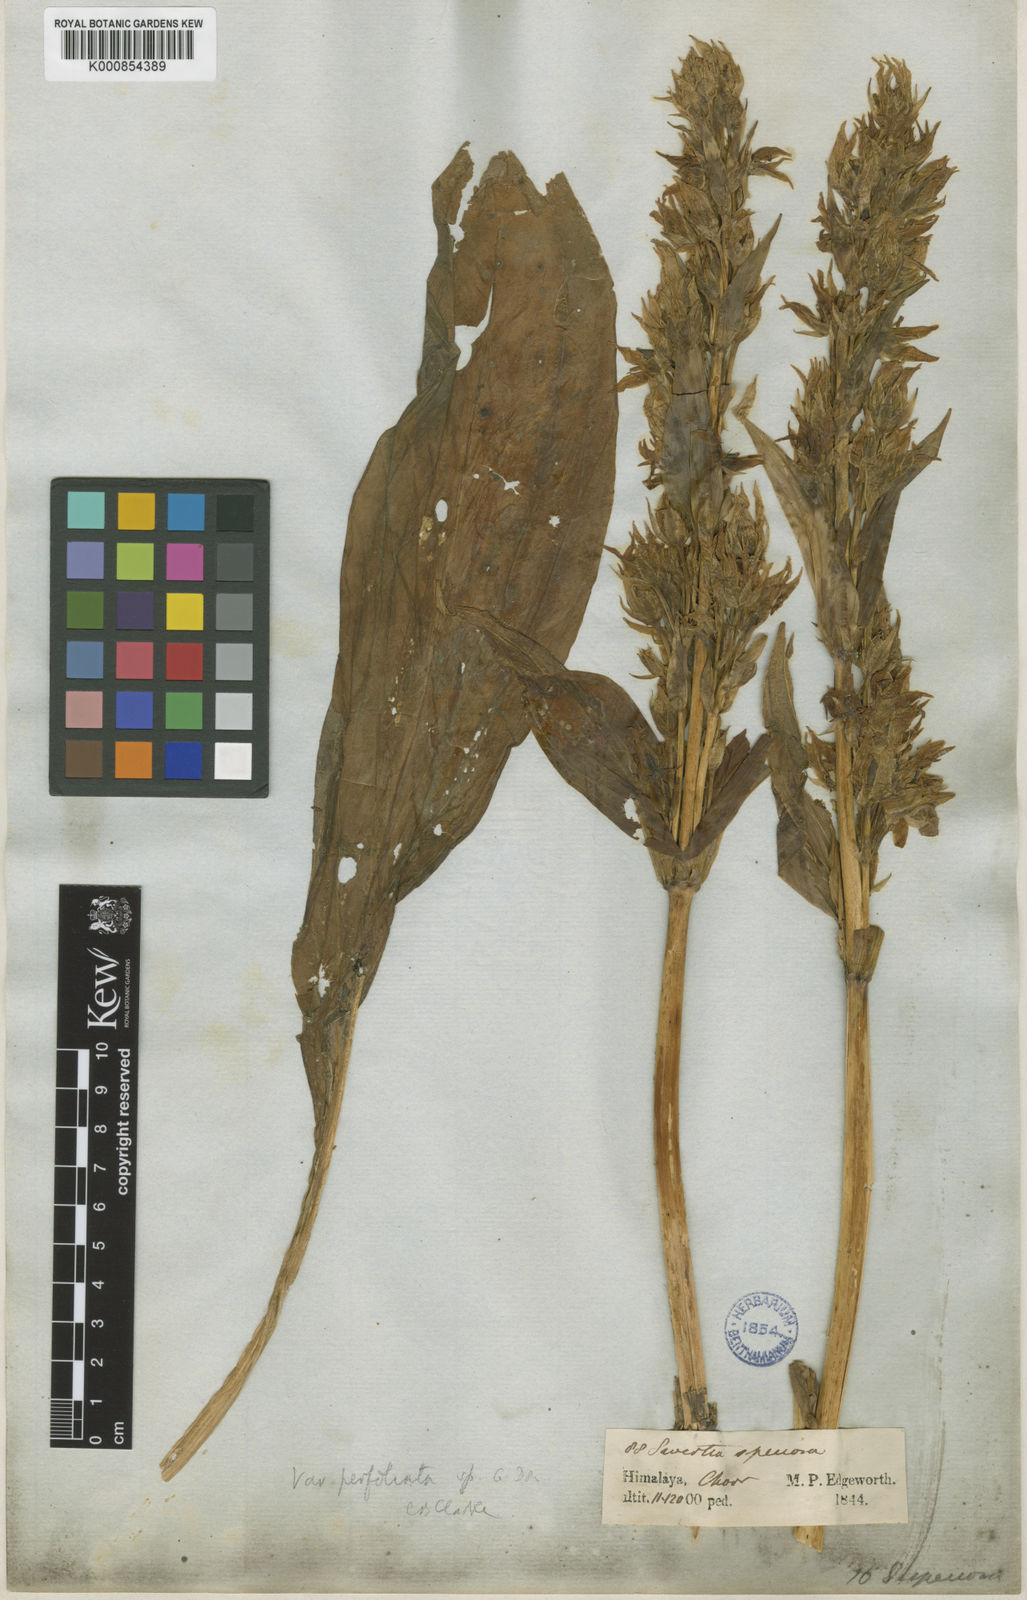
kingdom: Plantae
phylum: Tracheophyta
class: Magnoliopsida
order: Gentianales
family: Gentianaceae
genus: Swertia
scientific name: Swertia speciosa
